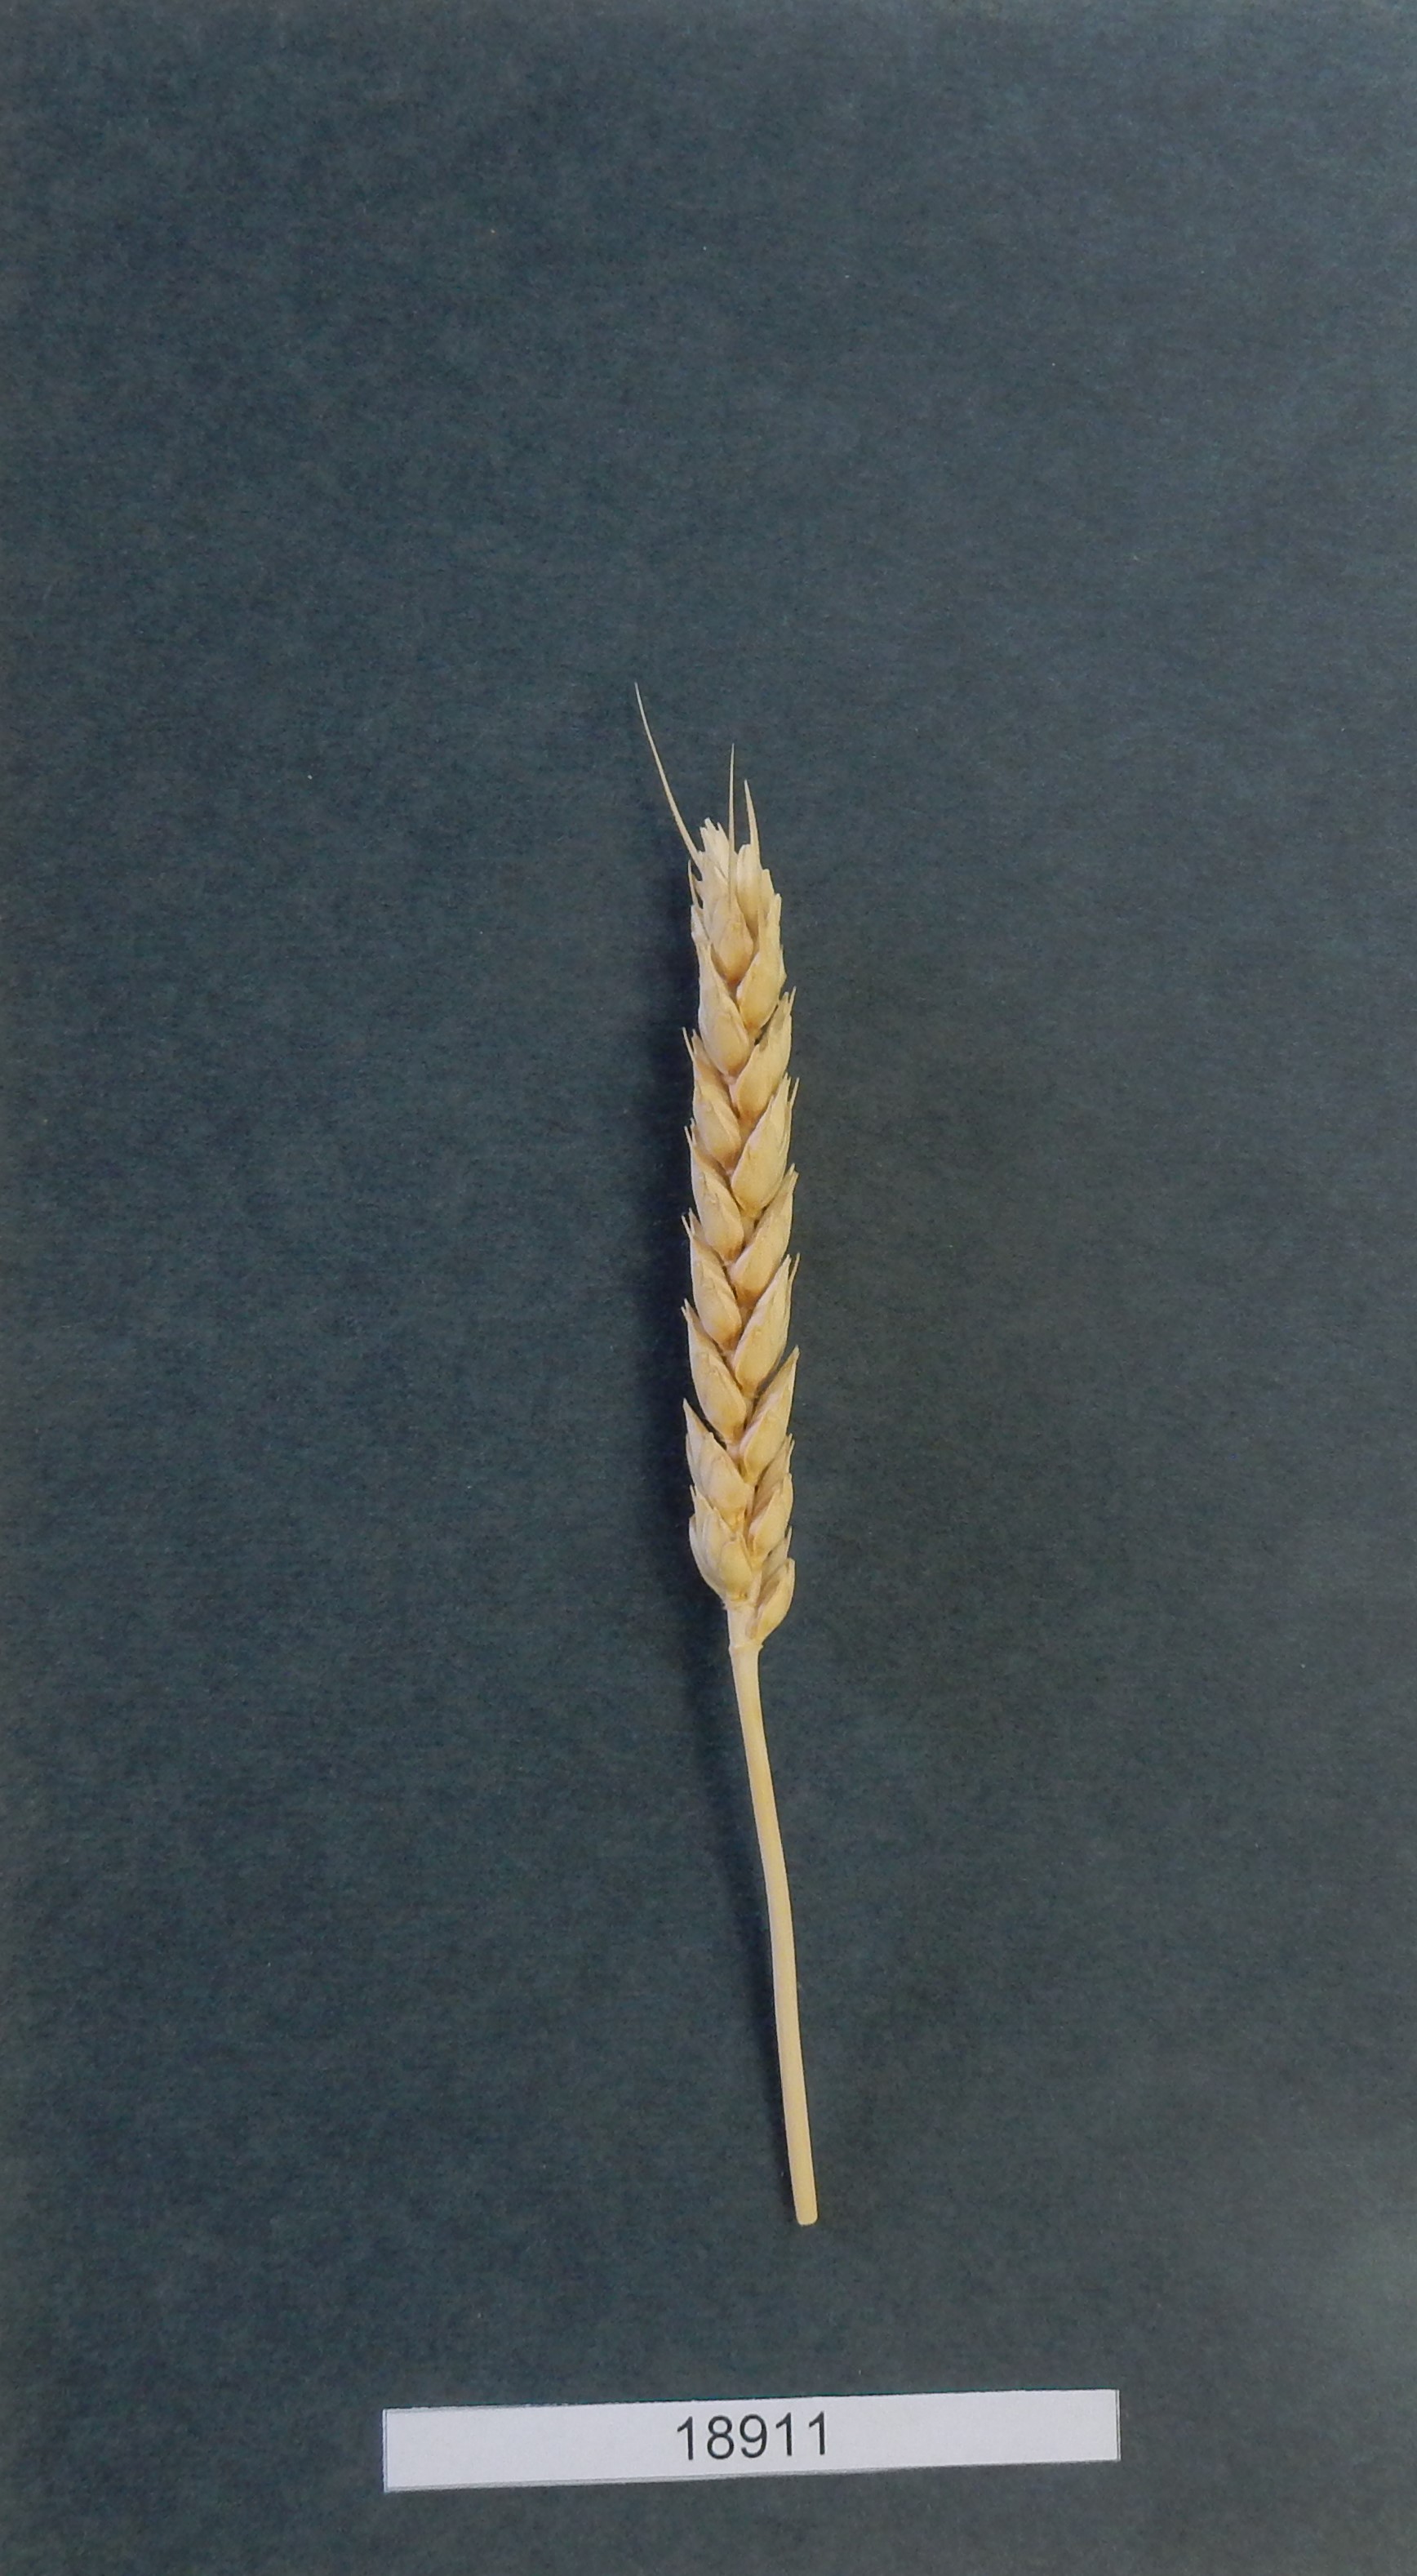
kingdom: Plantae
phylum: Tracheophyta
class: Liliopsida
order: Poales
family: Poaceae
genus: Triticum
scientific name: Triticum aestivum
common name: Common wheat
